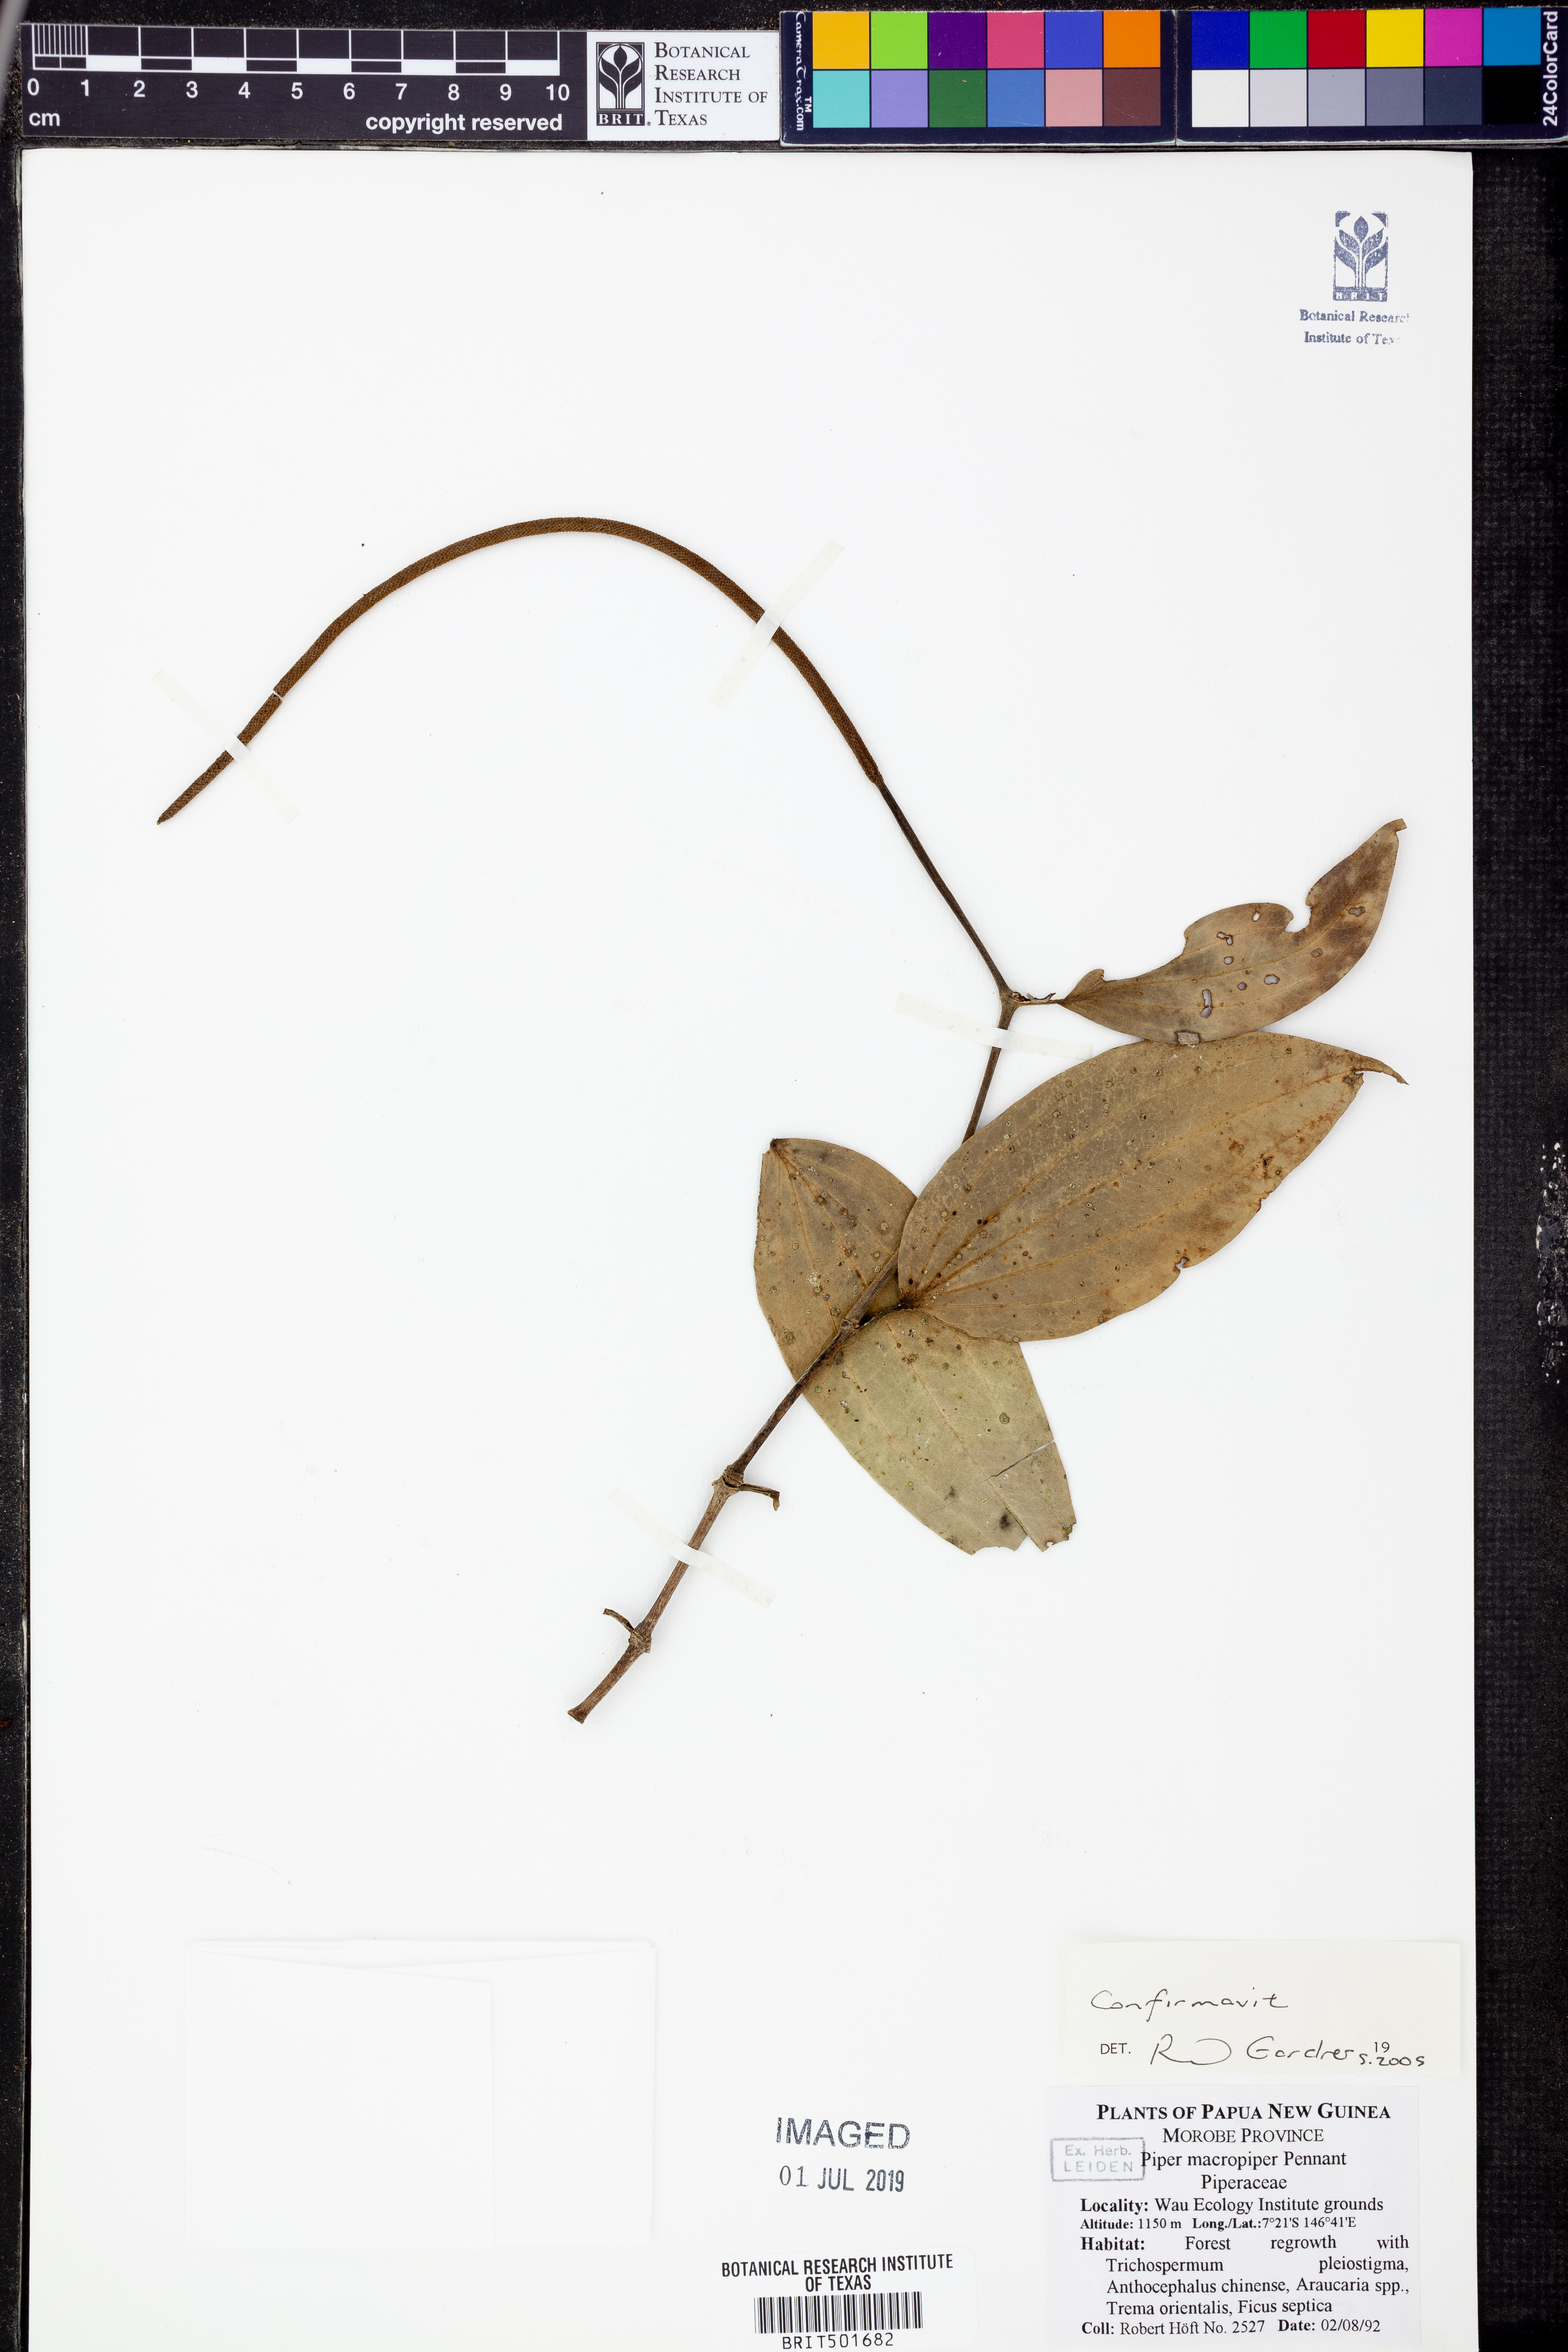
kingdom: Plantae
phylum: Tracheophyta
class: Magnoliopsida
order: Piperales
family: Piperaceae
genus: Piper
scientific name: Piper macropiper
